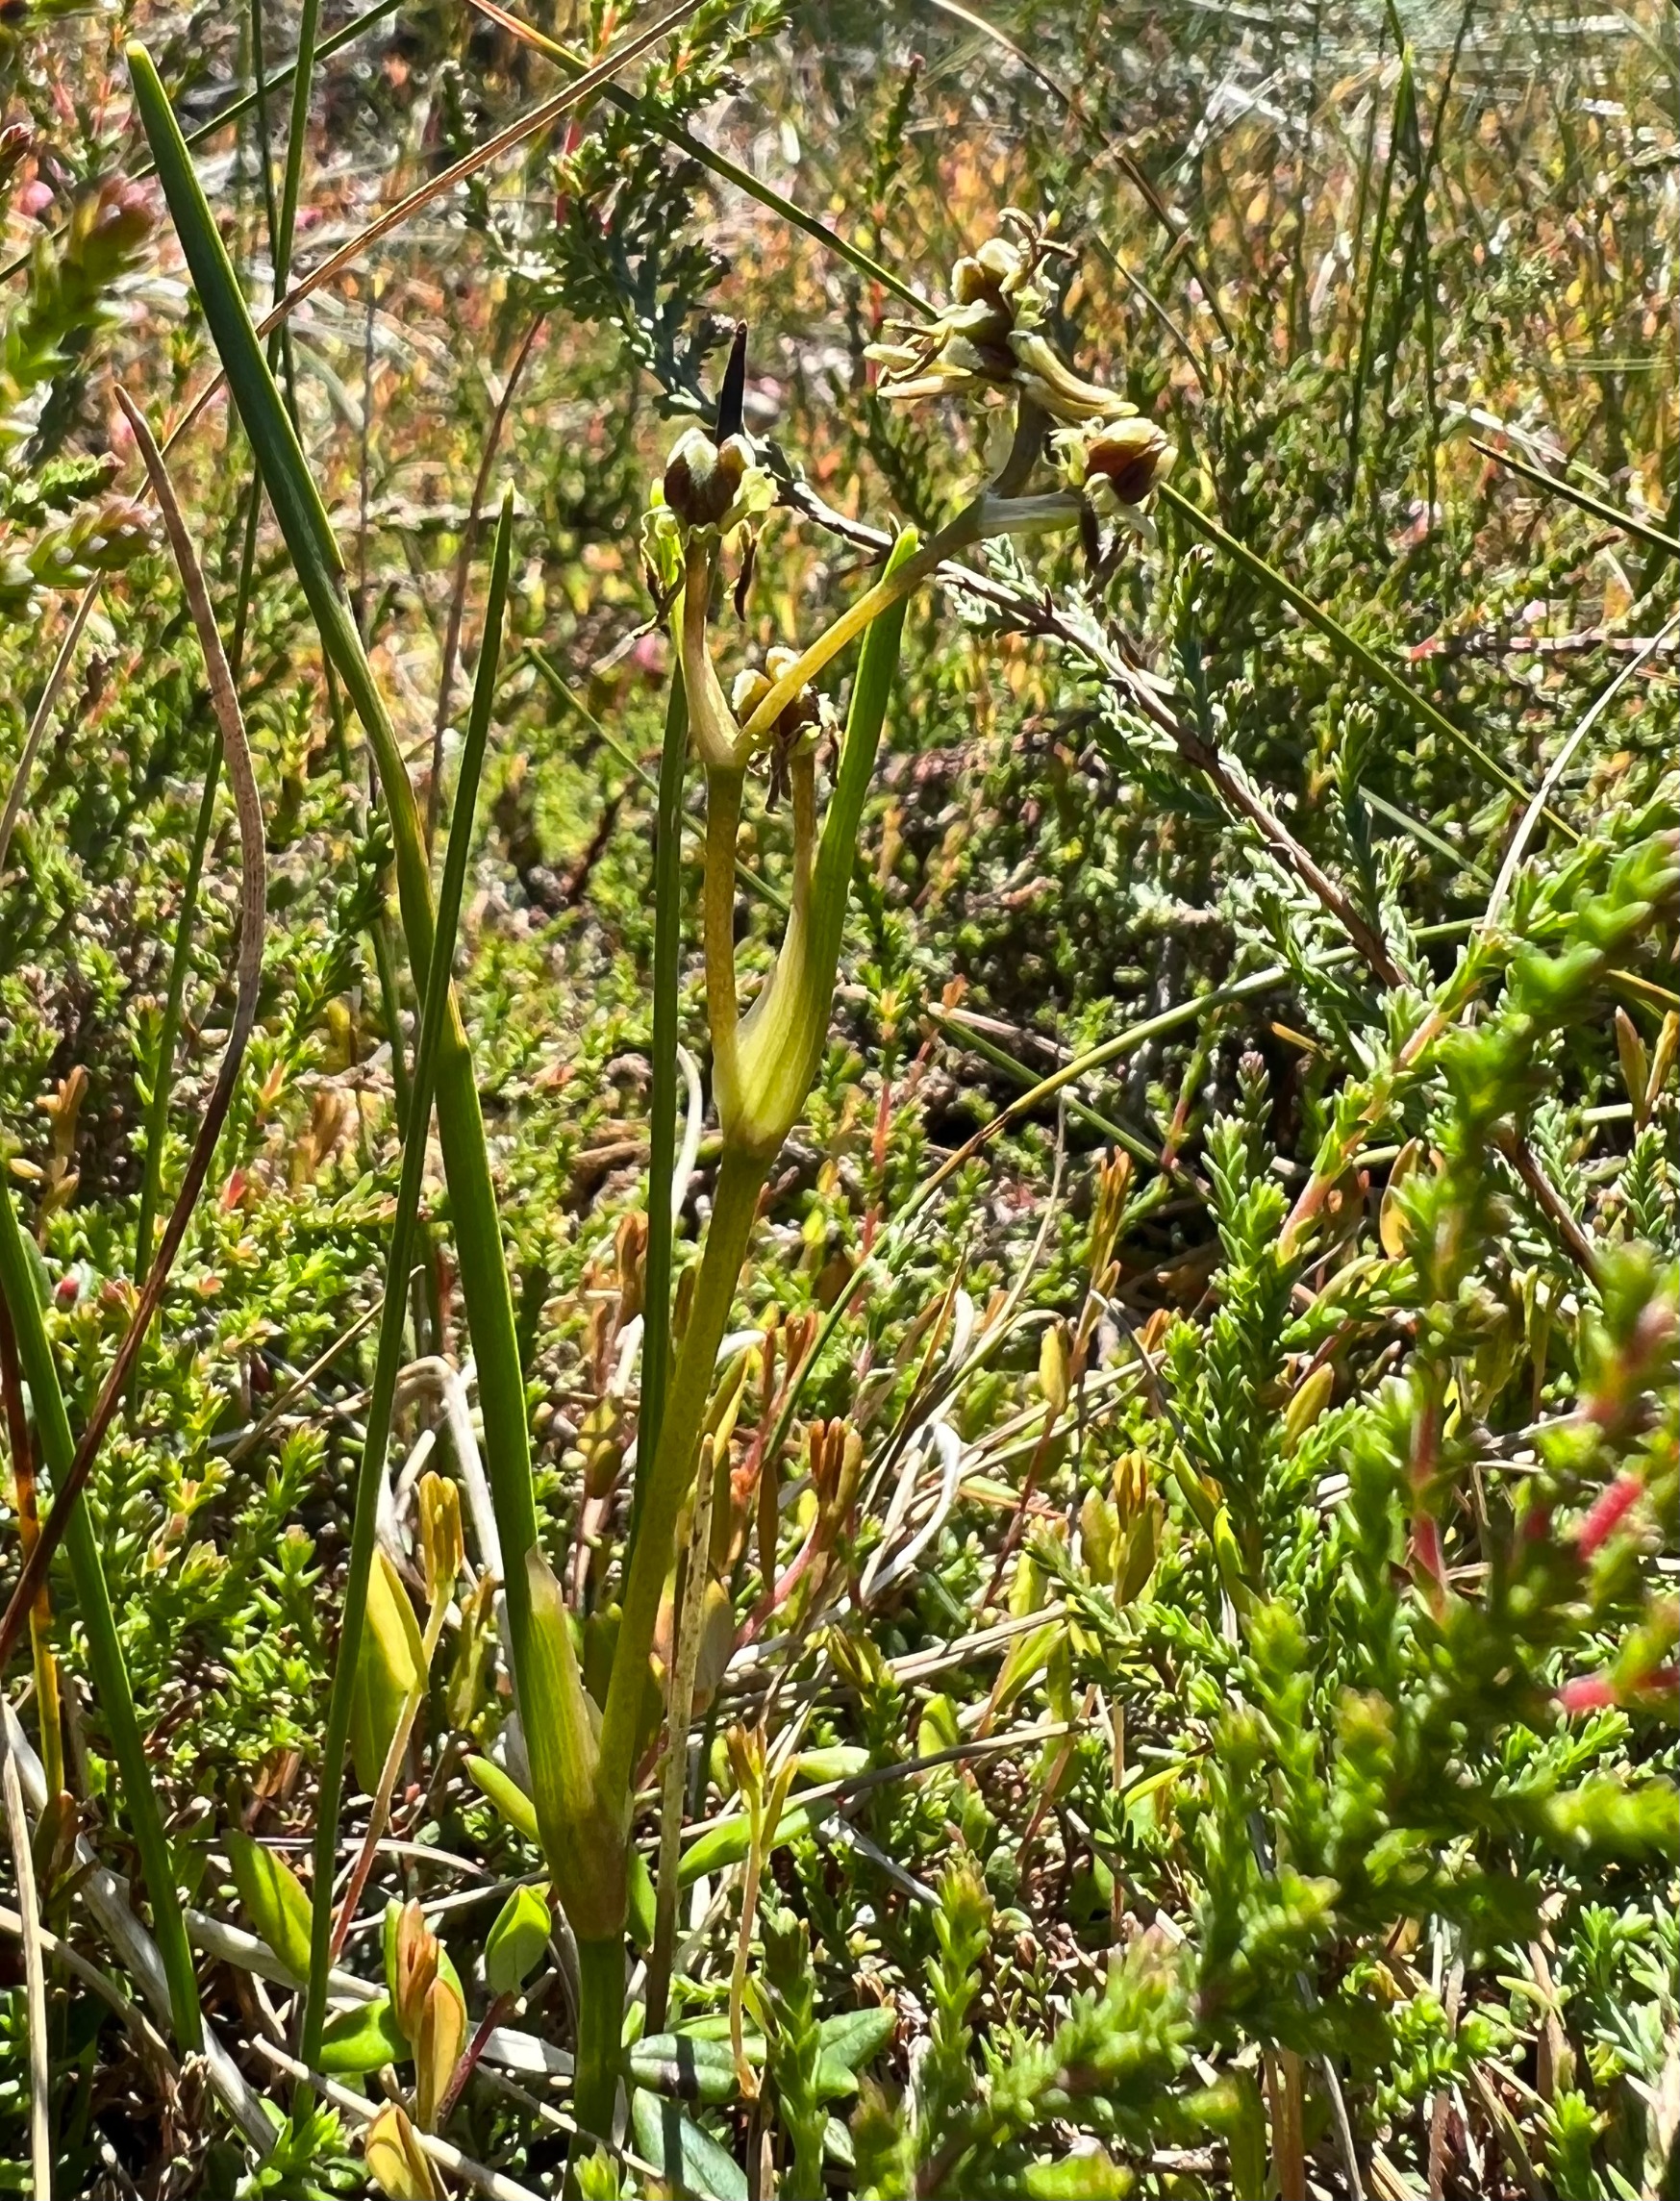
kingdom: Plantae
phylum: Tracheophyta
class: Liliopsida
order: Alismatales
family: Scheuchzeriaceae
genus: Scheuchzeria
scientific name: Scheuchzeria palustris
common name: Blomstersiv
